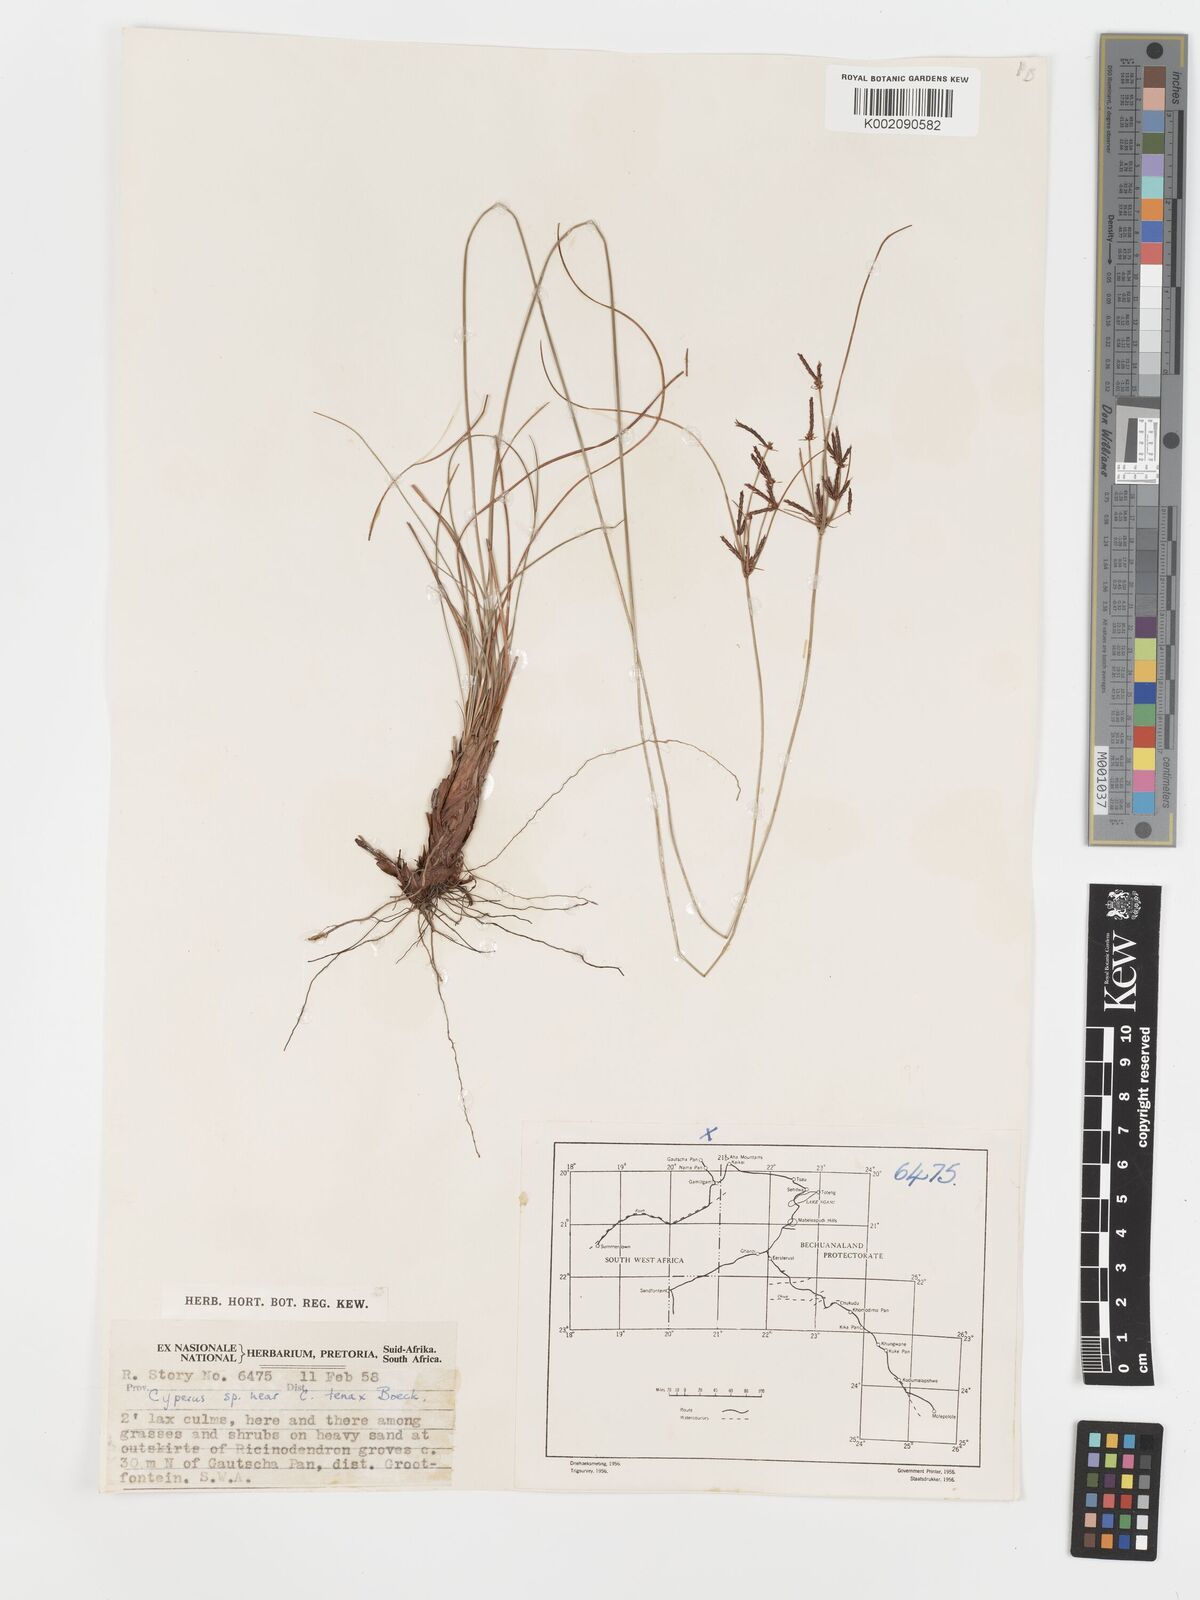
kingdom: Plantae
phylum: Tracheophyta
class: Liliopsida
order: Poales
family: Cyperaceae
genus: Cyperus
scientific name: Cyperus tenax
